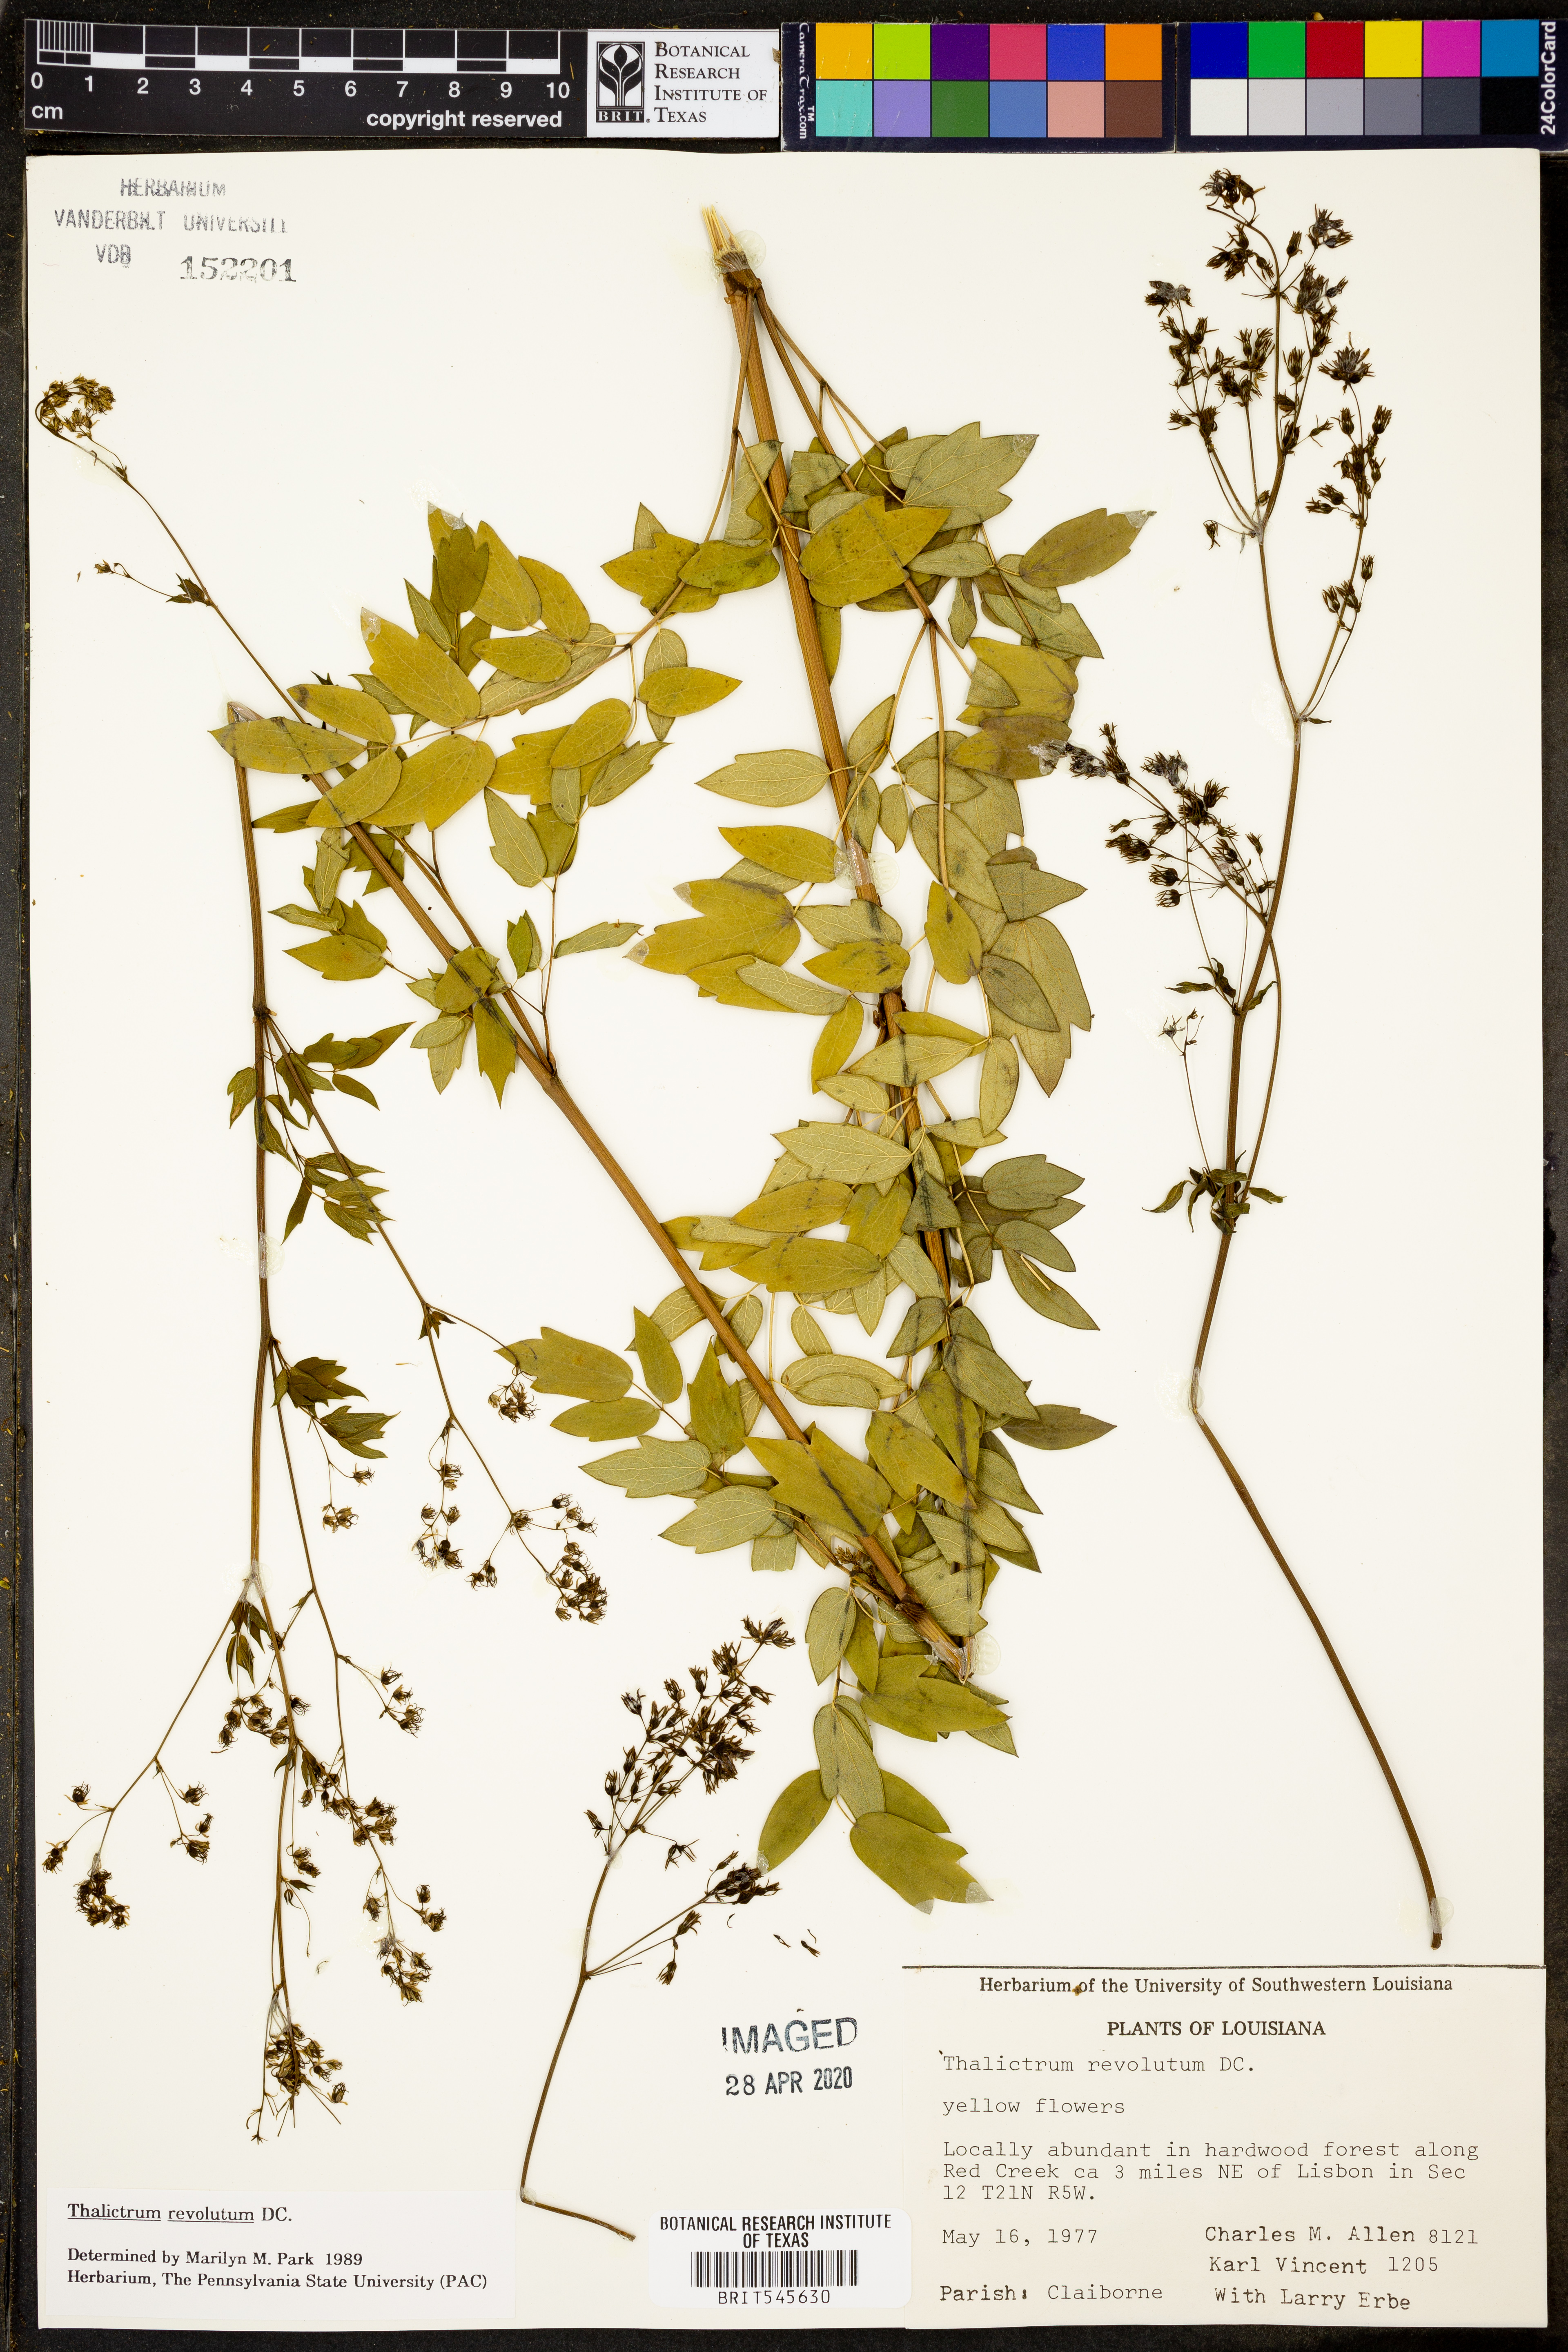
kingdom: Plantae
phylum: Tracheophyta
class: Magnoliopsida
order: Ranunculales
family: Ranunculaceae
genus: Thalictrum
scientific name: Thalictrum revolutum
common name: Waxy meadow-rue
